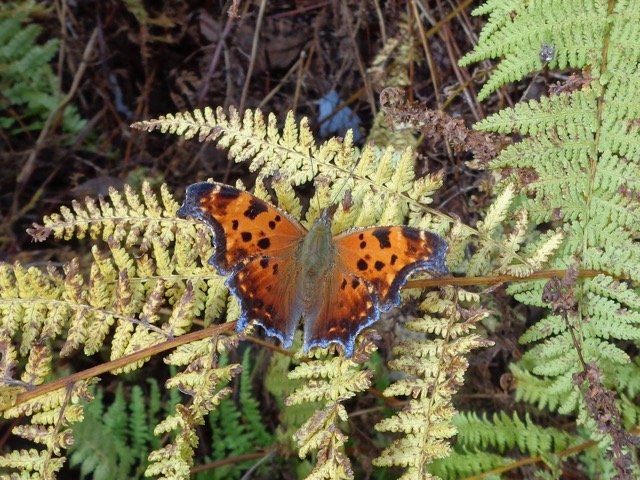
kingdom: Animalia
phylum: Arthropoda
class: Insecta
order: Lepidoptera
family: Nymphalidae
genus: Polygonia
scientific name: Polygonia comma
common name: Eastern Comma
